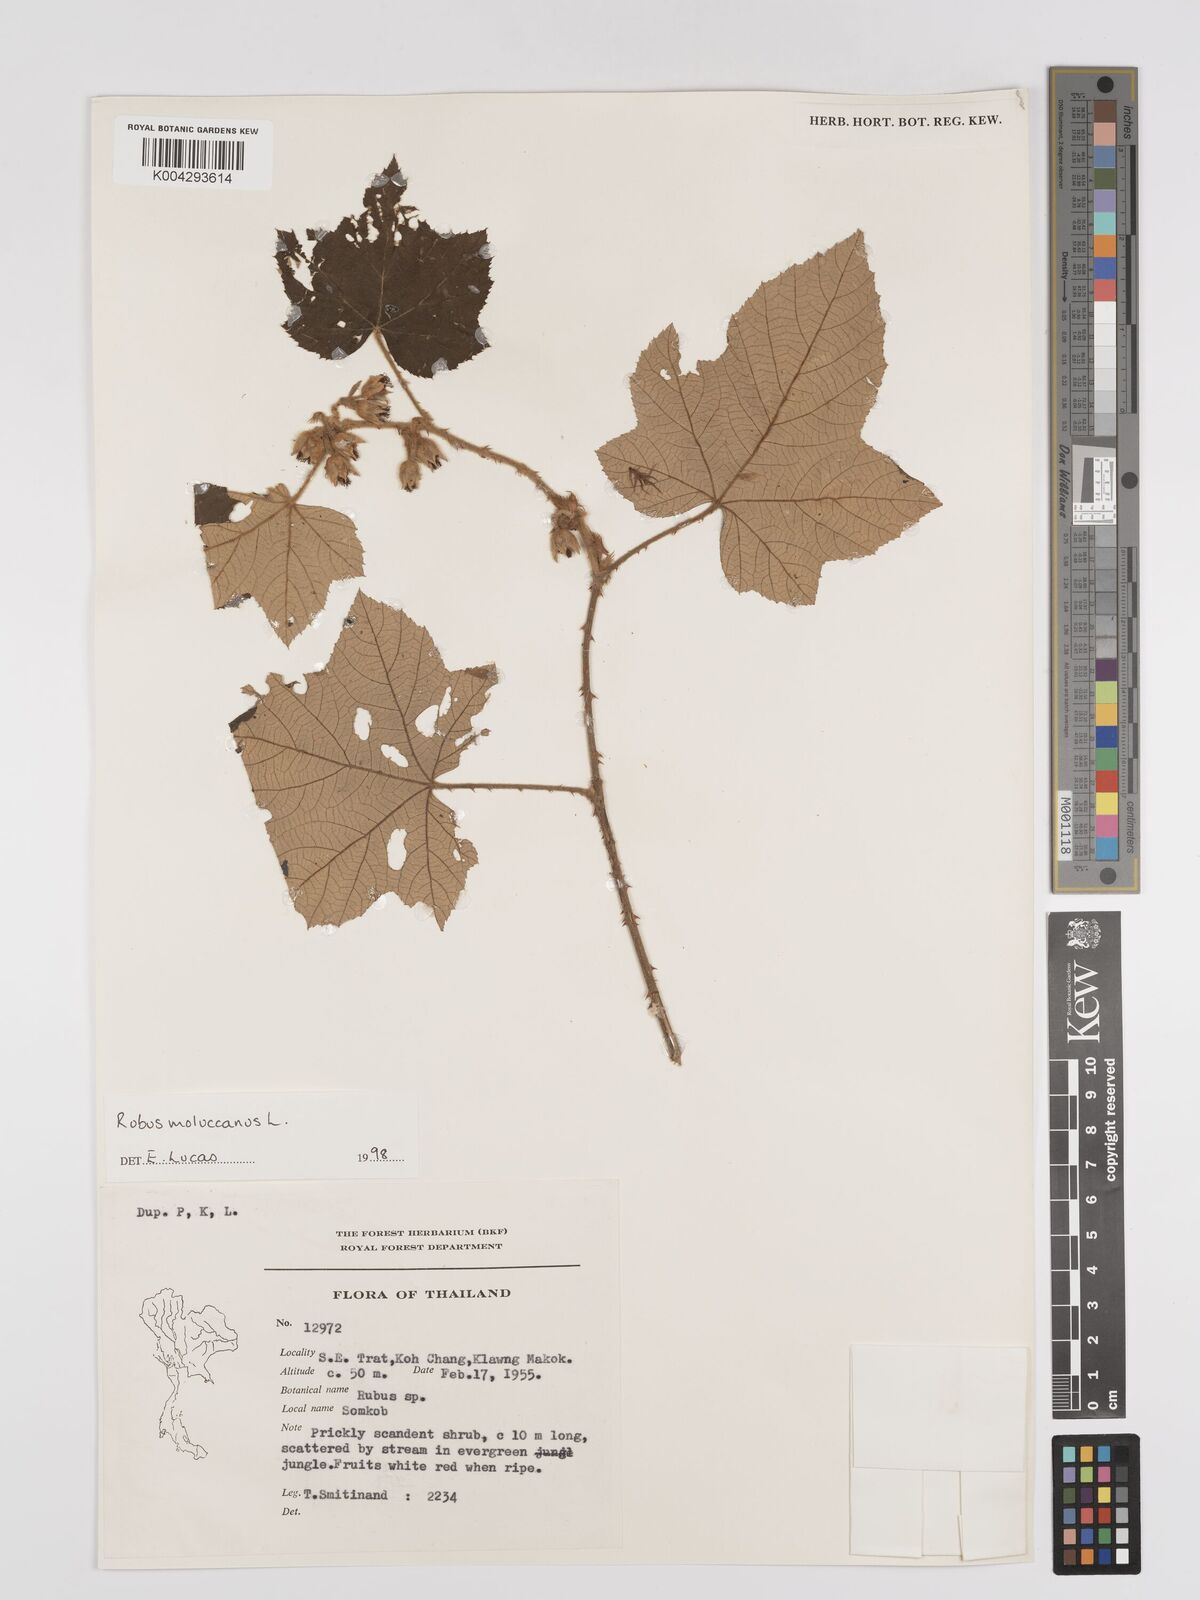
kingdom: Plantae
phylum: Tracheophyta
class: Magnoliopsida
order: Rosales
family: Rosaceae
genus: Rubus
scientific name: Rubus moluccanus
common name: Wild raspberry
